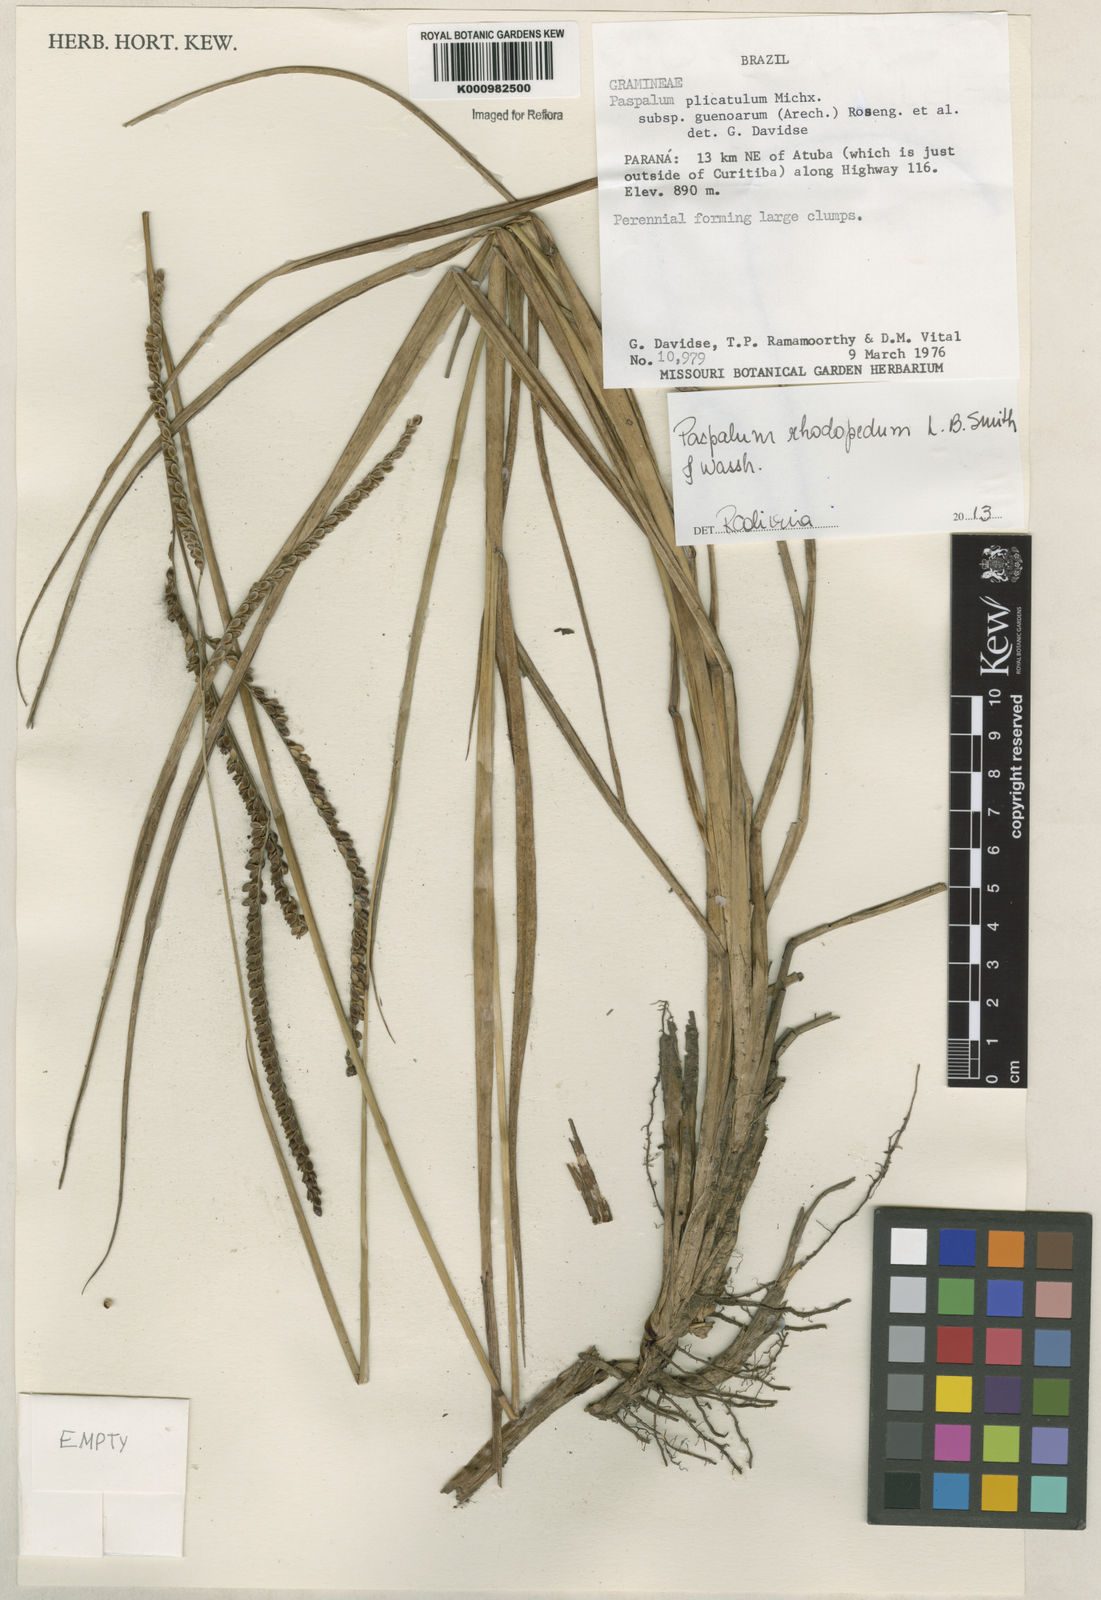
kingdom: Plantae
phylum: Tracheophyta
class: Liliopsida
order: Poales
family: Poaceae
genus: Paspalum
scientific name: Paspalum guenoarum
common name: Wintergreen paspalum
